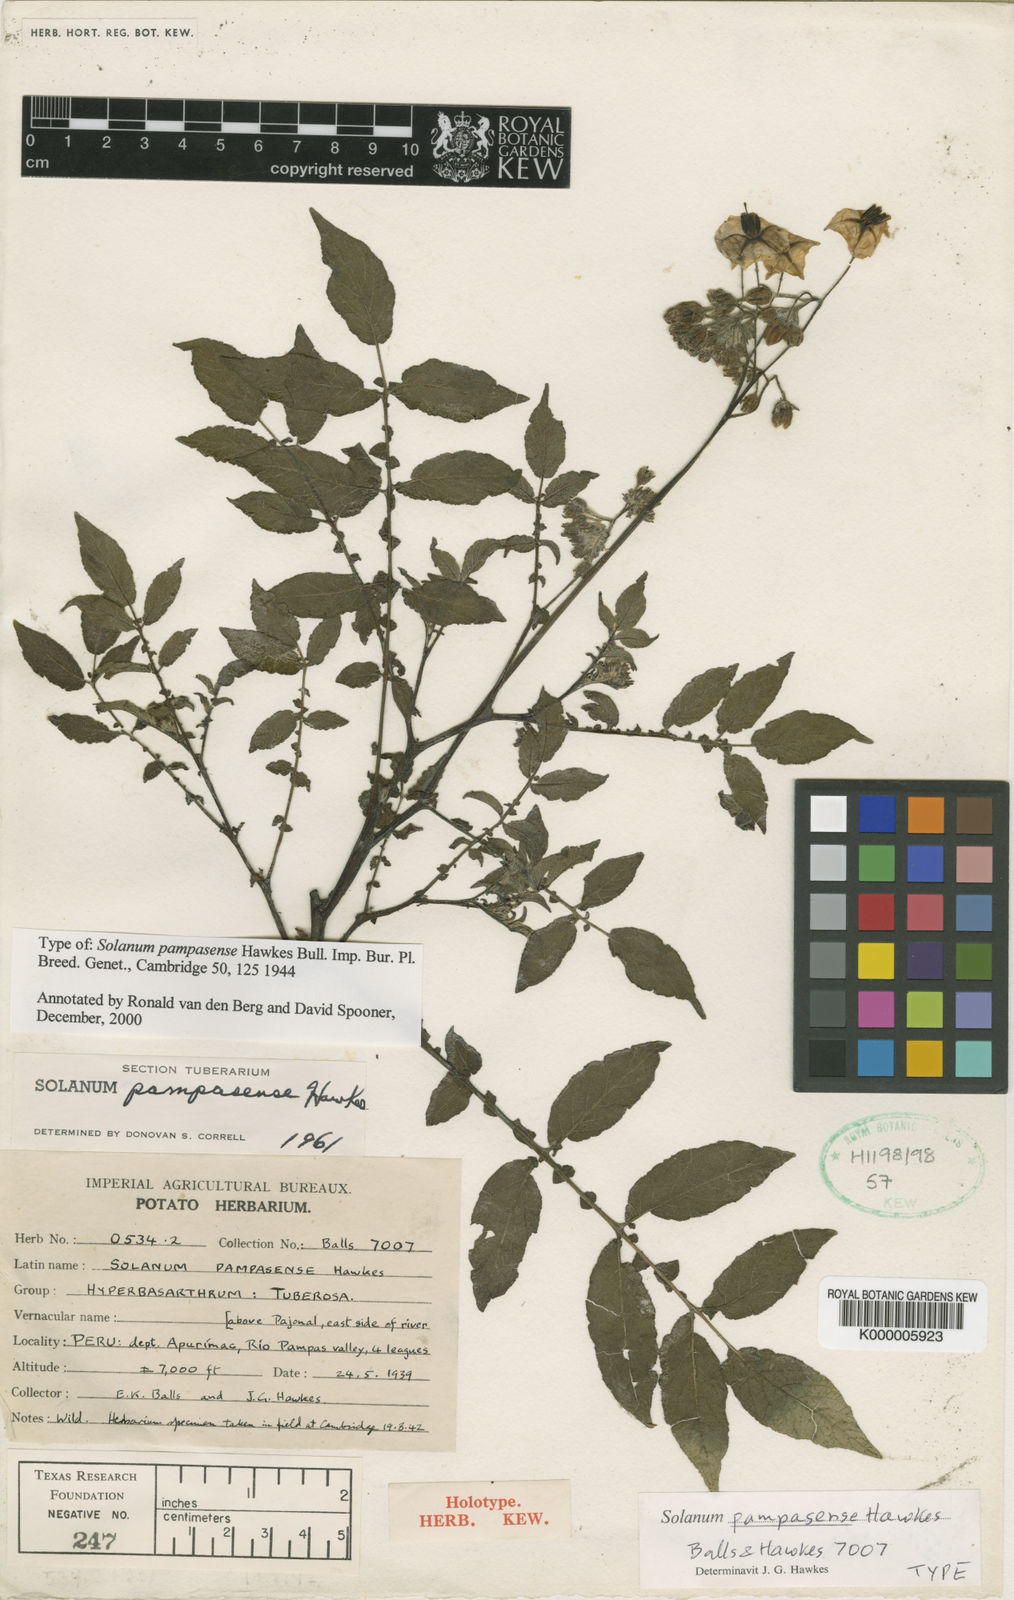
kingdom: Plantae
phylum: Tracheophyta
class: Magnoliopsida
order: Solanales
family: Solanaceae
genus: Solanum
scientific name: Solanum candolleanum
